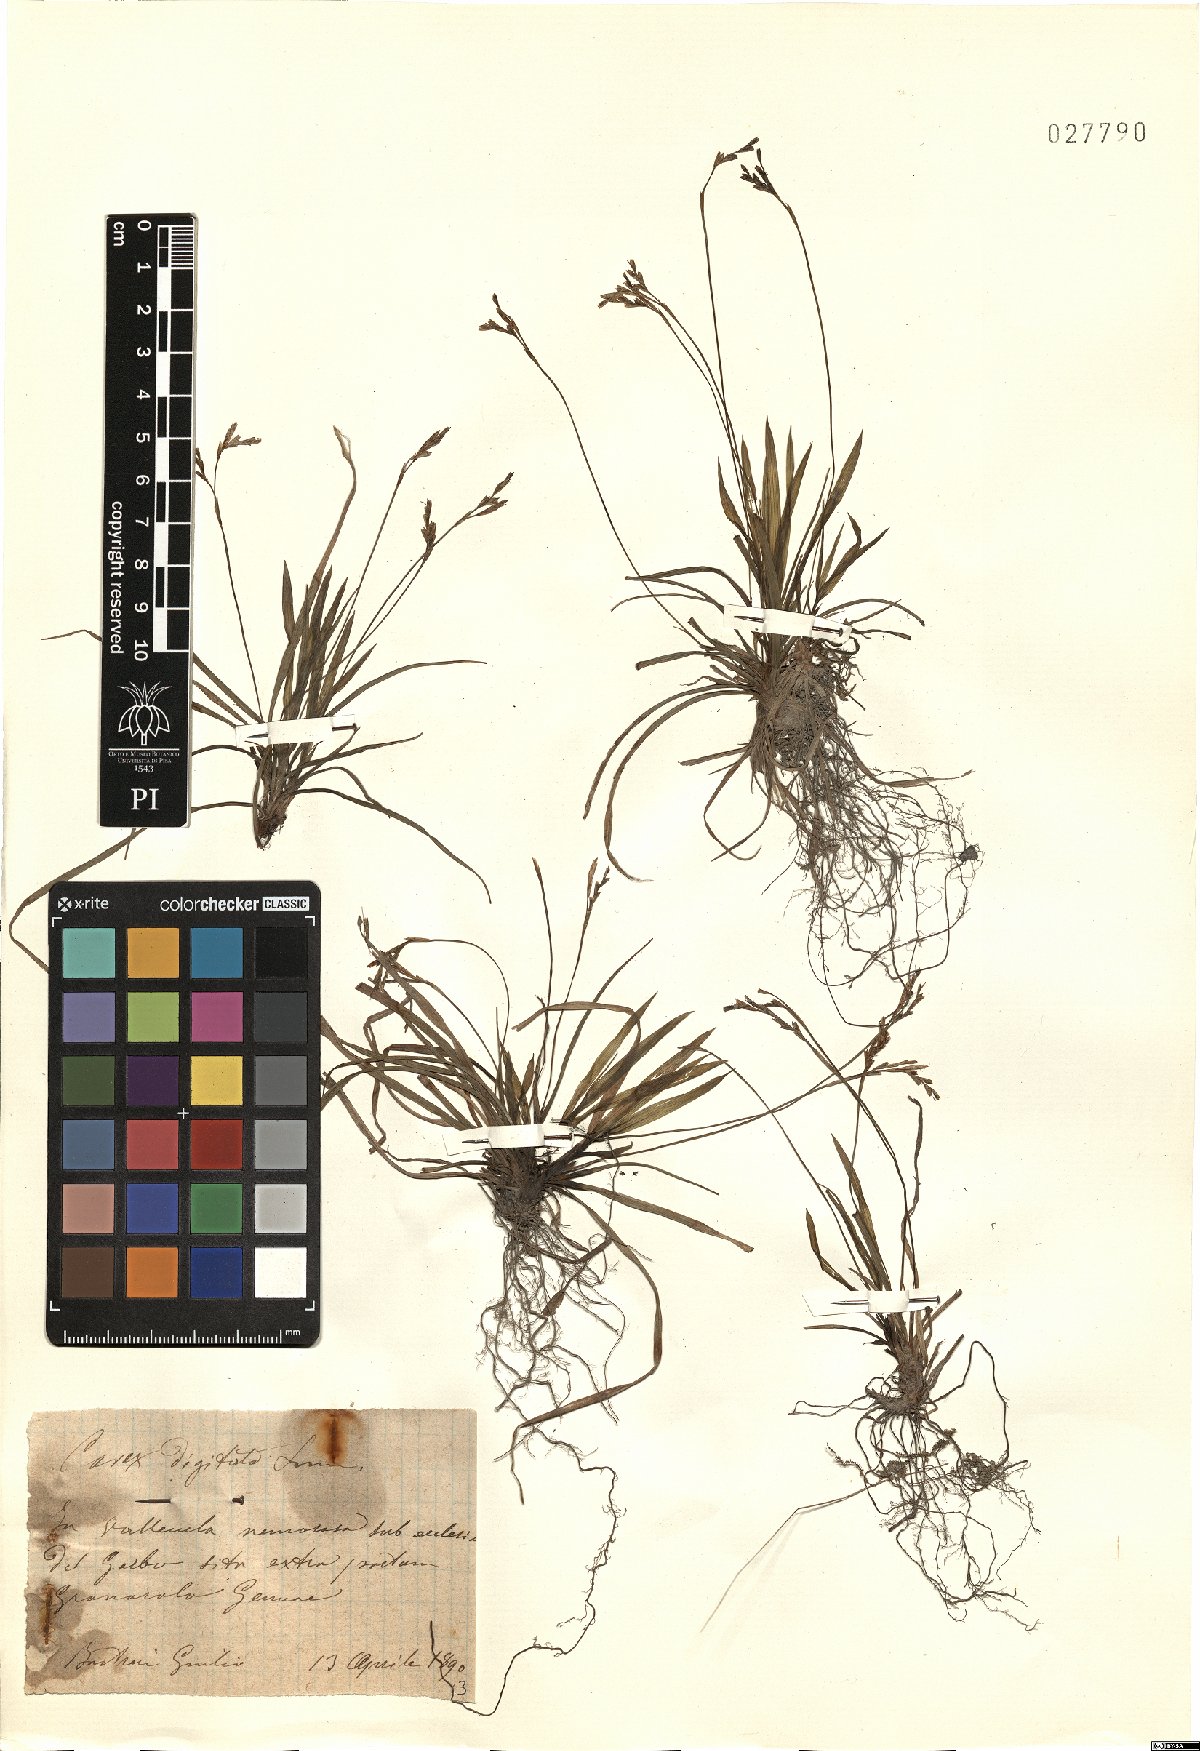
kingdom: Plantae
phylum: Tracheophyta
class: Liliopsida
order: Poales
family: Cyperaceae
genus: Carex
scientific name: Carex digitata
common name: Fingered sedge
